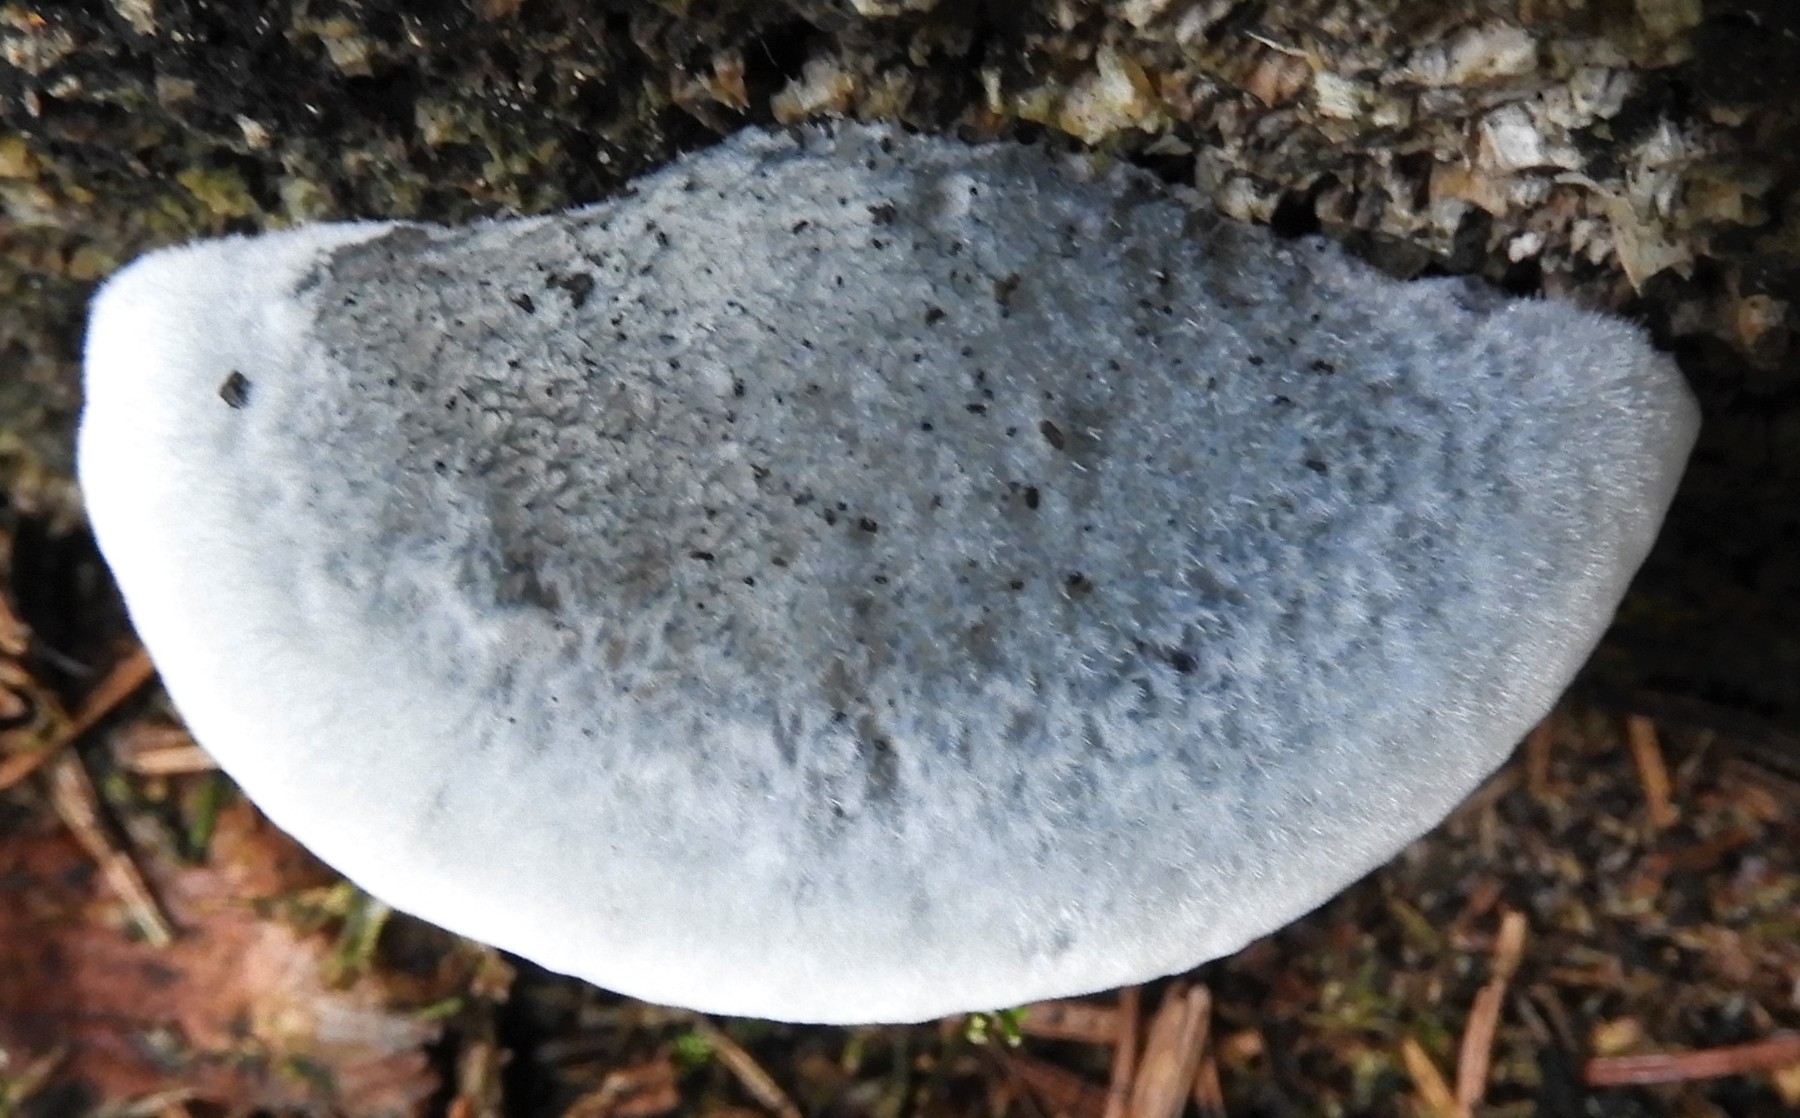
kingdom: Fungi
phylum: Basidiomycota
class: Agaricomycetes
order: Polyporales
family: Polyporaceae
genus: Cyanosporus
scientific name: Cyanosporus caesius
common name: blålig kødporesvamp
